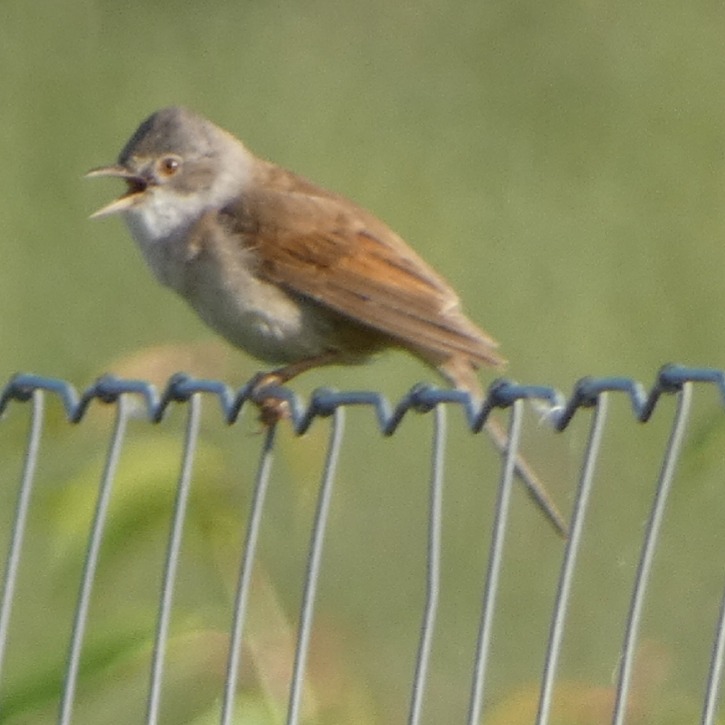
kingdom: Animalia
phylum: Chordata
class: Aves
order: Passeriformes
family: Sylviidae
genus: Sylvia
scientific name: Sylvia communis
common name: Tornsanger
